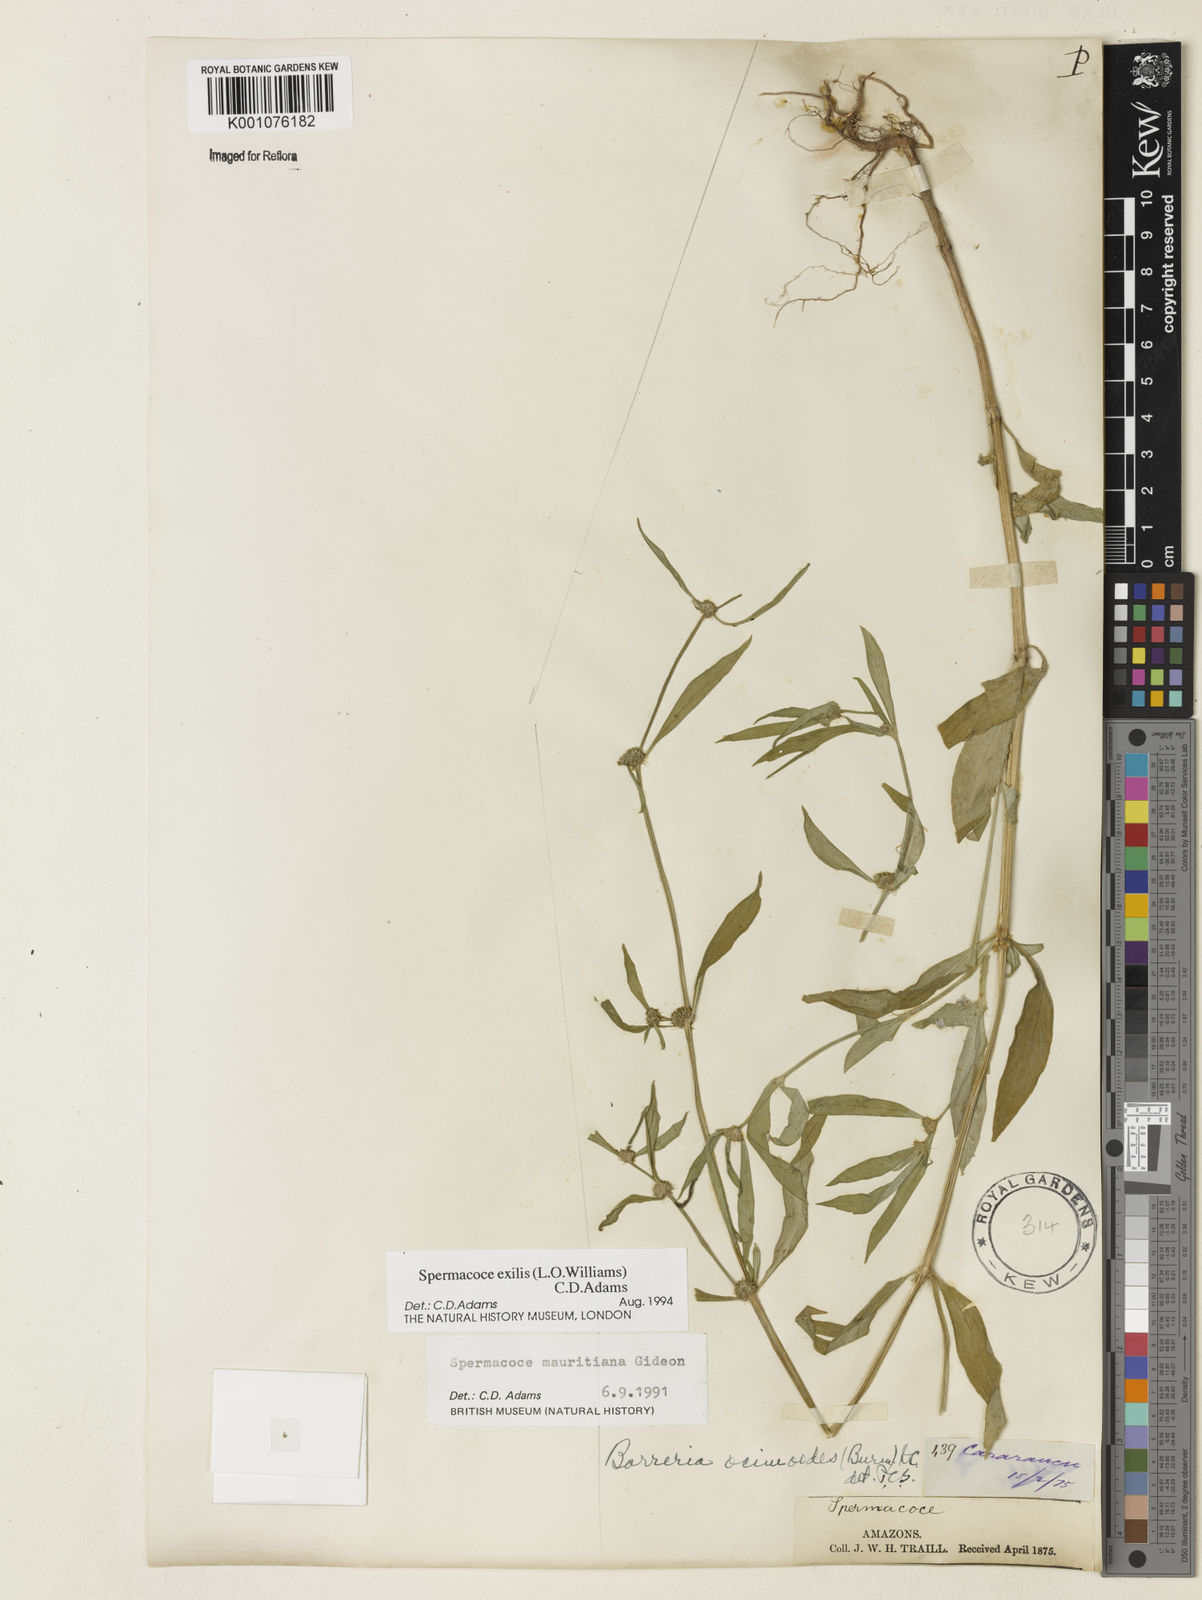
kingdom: Plantae
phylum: Tracheophyta
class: Magnoliopsida
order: Gentianales
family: Rubiaceae
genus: Spermacoce
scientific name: Spermacoce exilis
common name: Pacific false buttonweed
